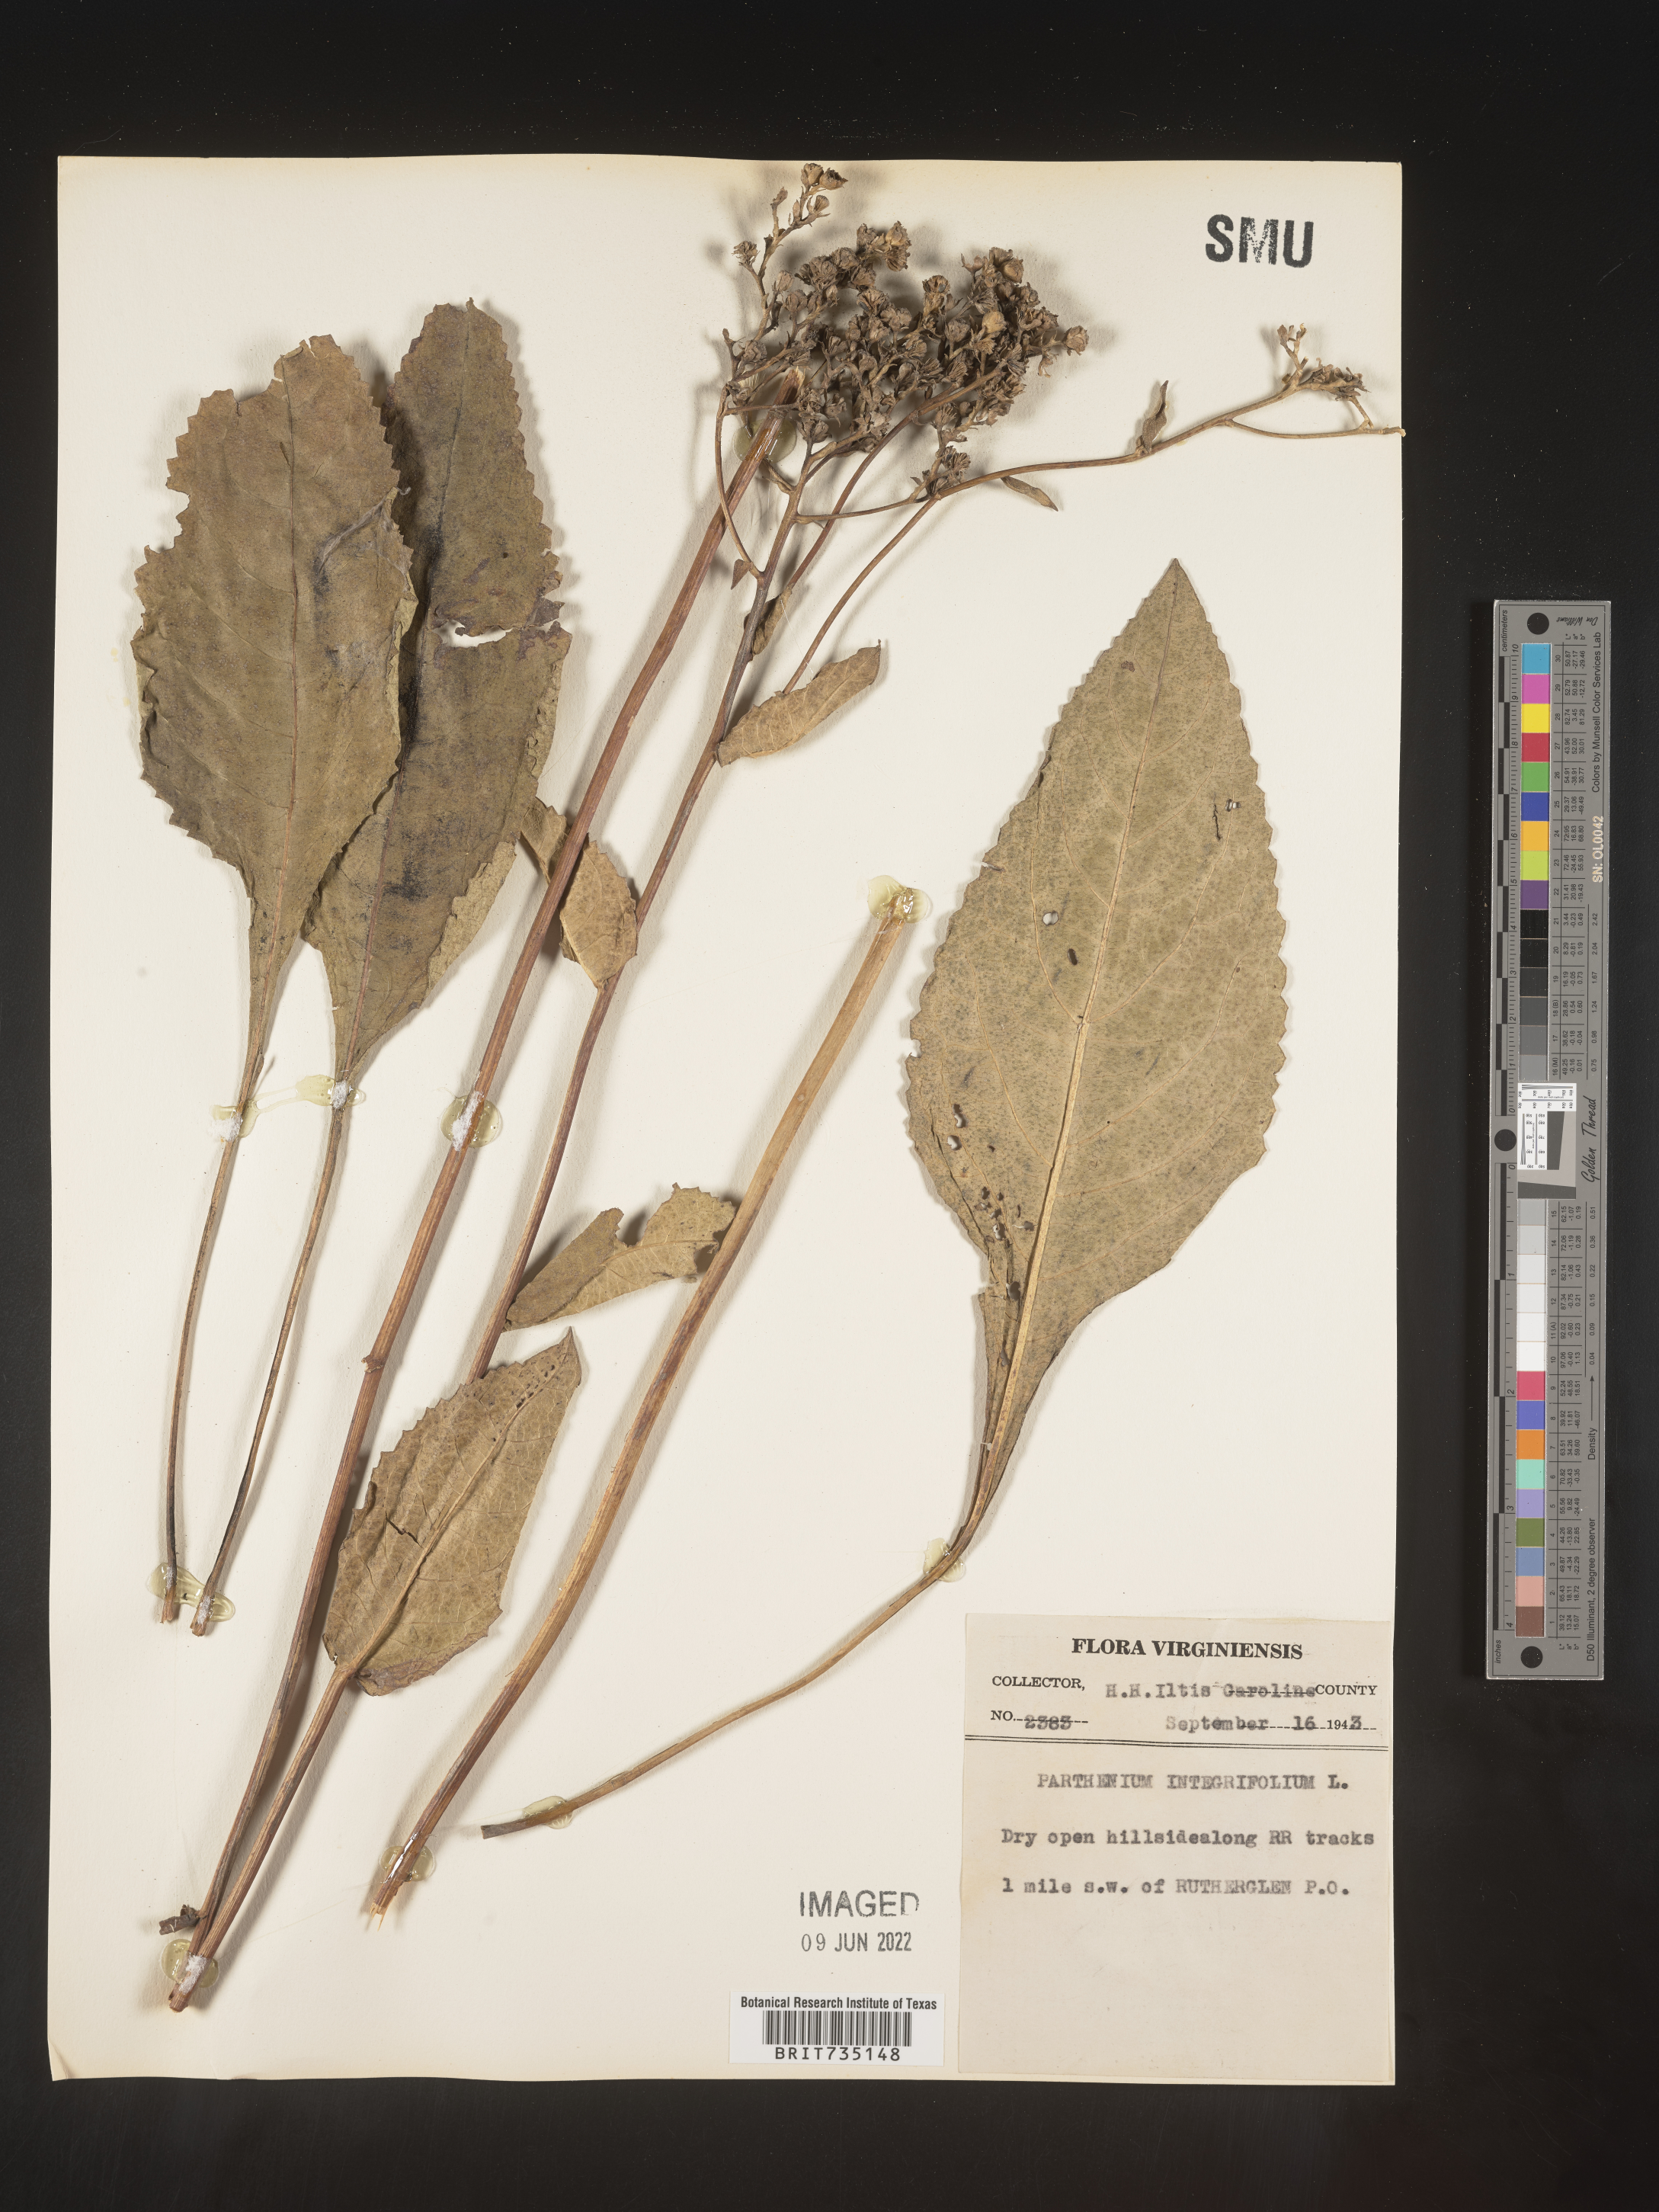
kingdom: Plantae
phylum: Tracheophyta
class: Magnoliopsida
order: Asterales
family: Asteraceae
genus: Parthenium
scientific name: Parthenium integrifolium
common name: American feverfew
